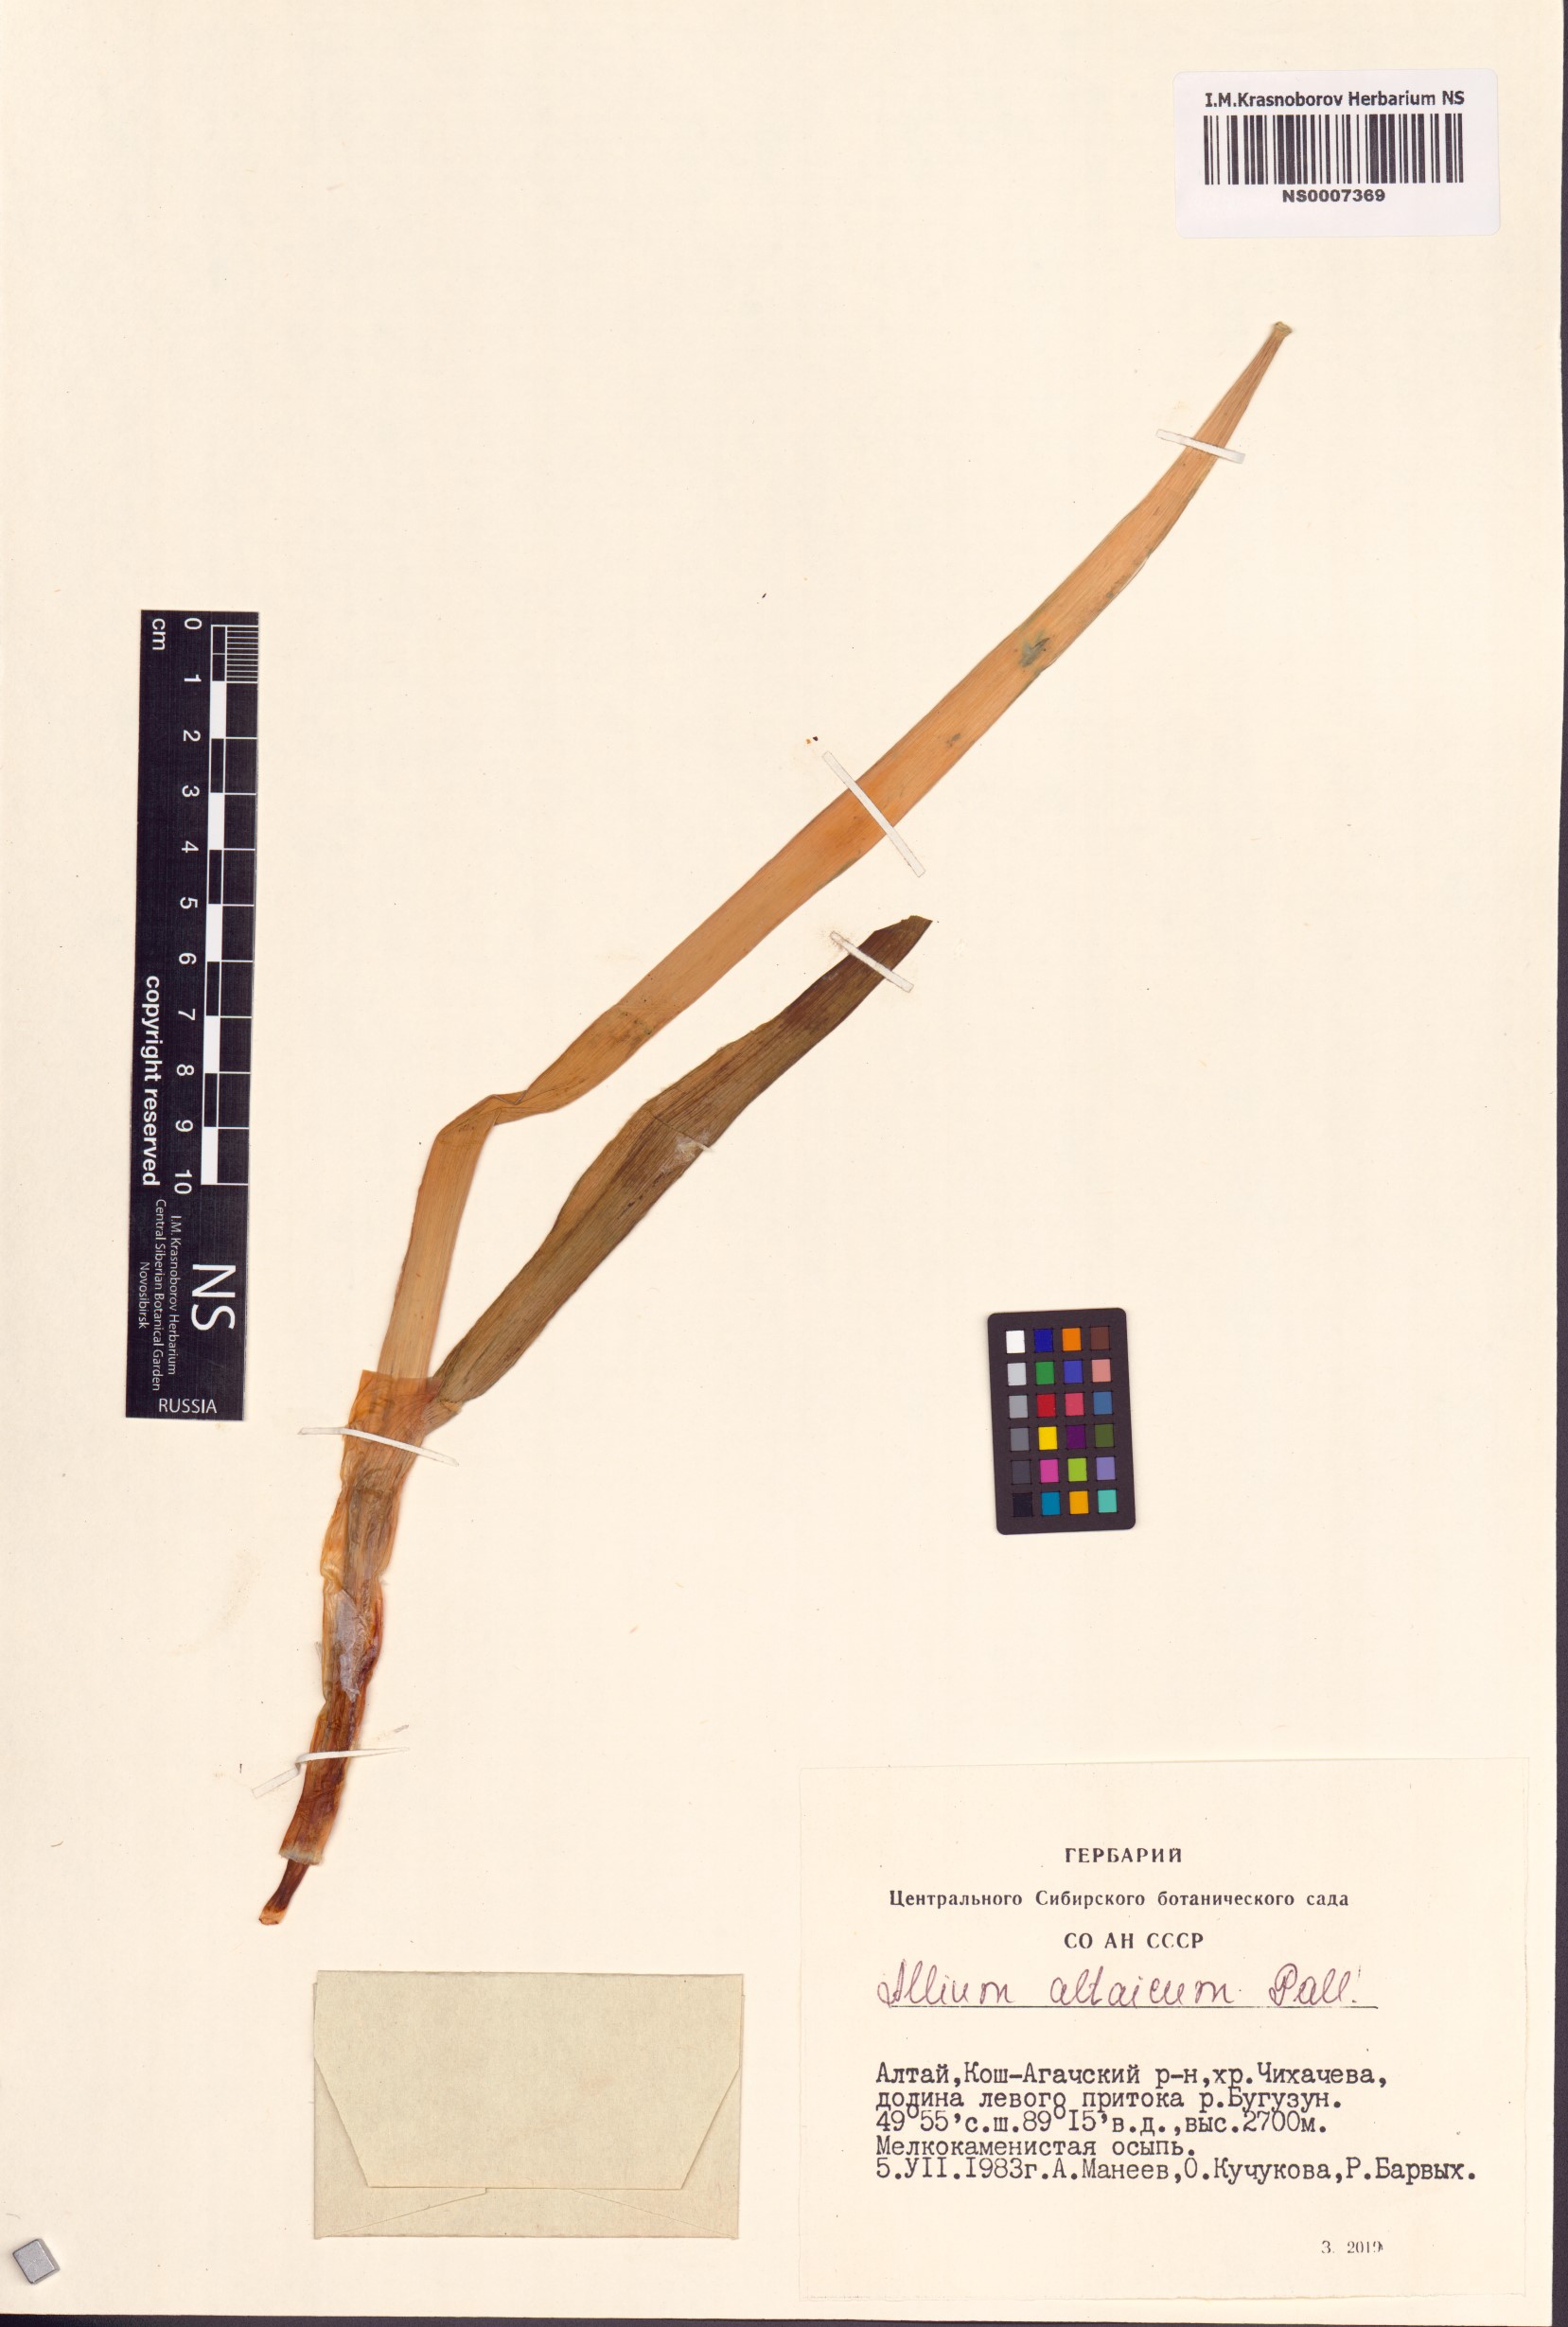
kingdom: Plantae
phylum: Tracheophyta
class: Liliopsida
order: Asparagales
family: Amaryllidaceae
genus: Allium
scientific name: Allium altaicum
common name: Altai onion
